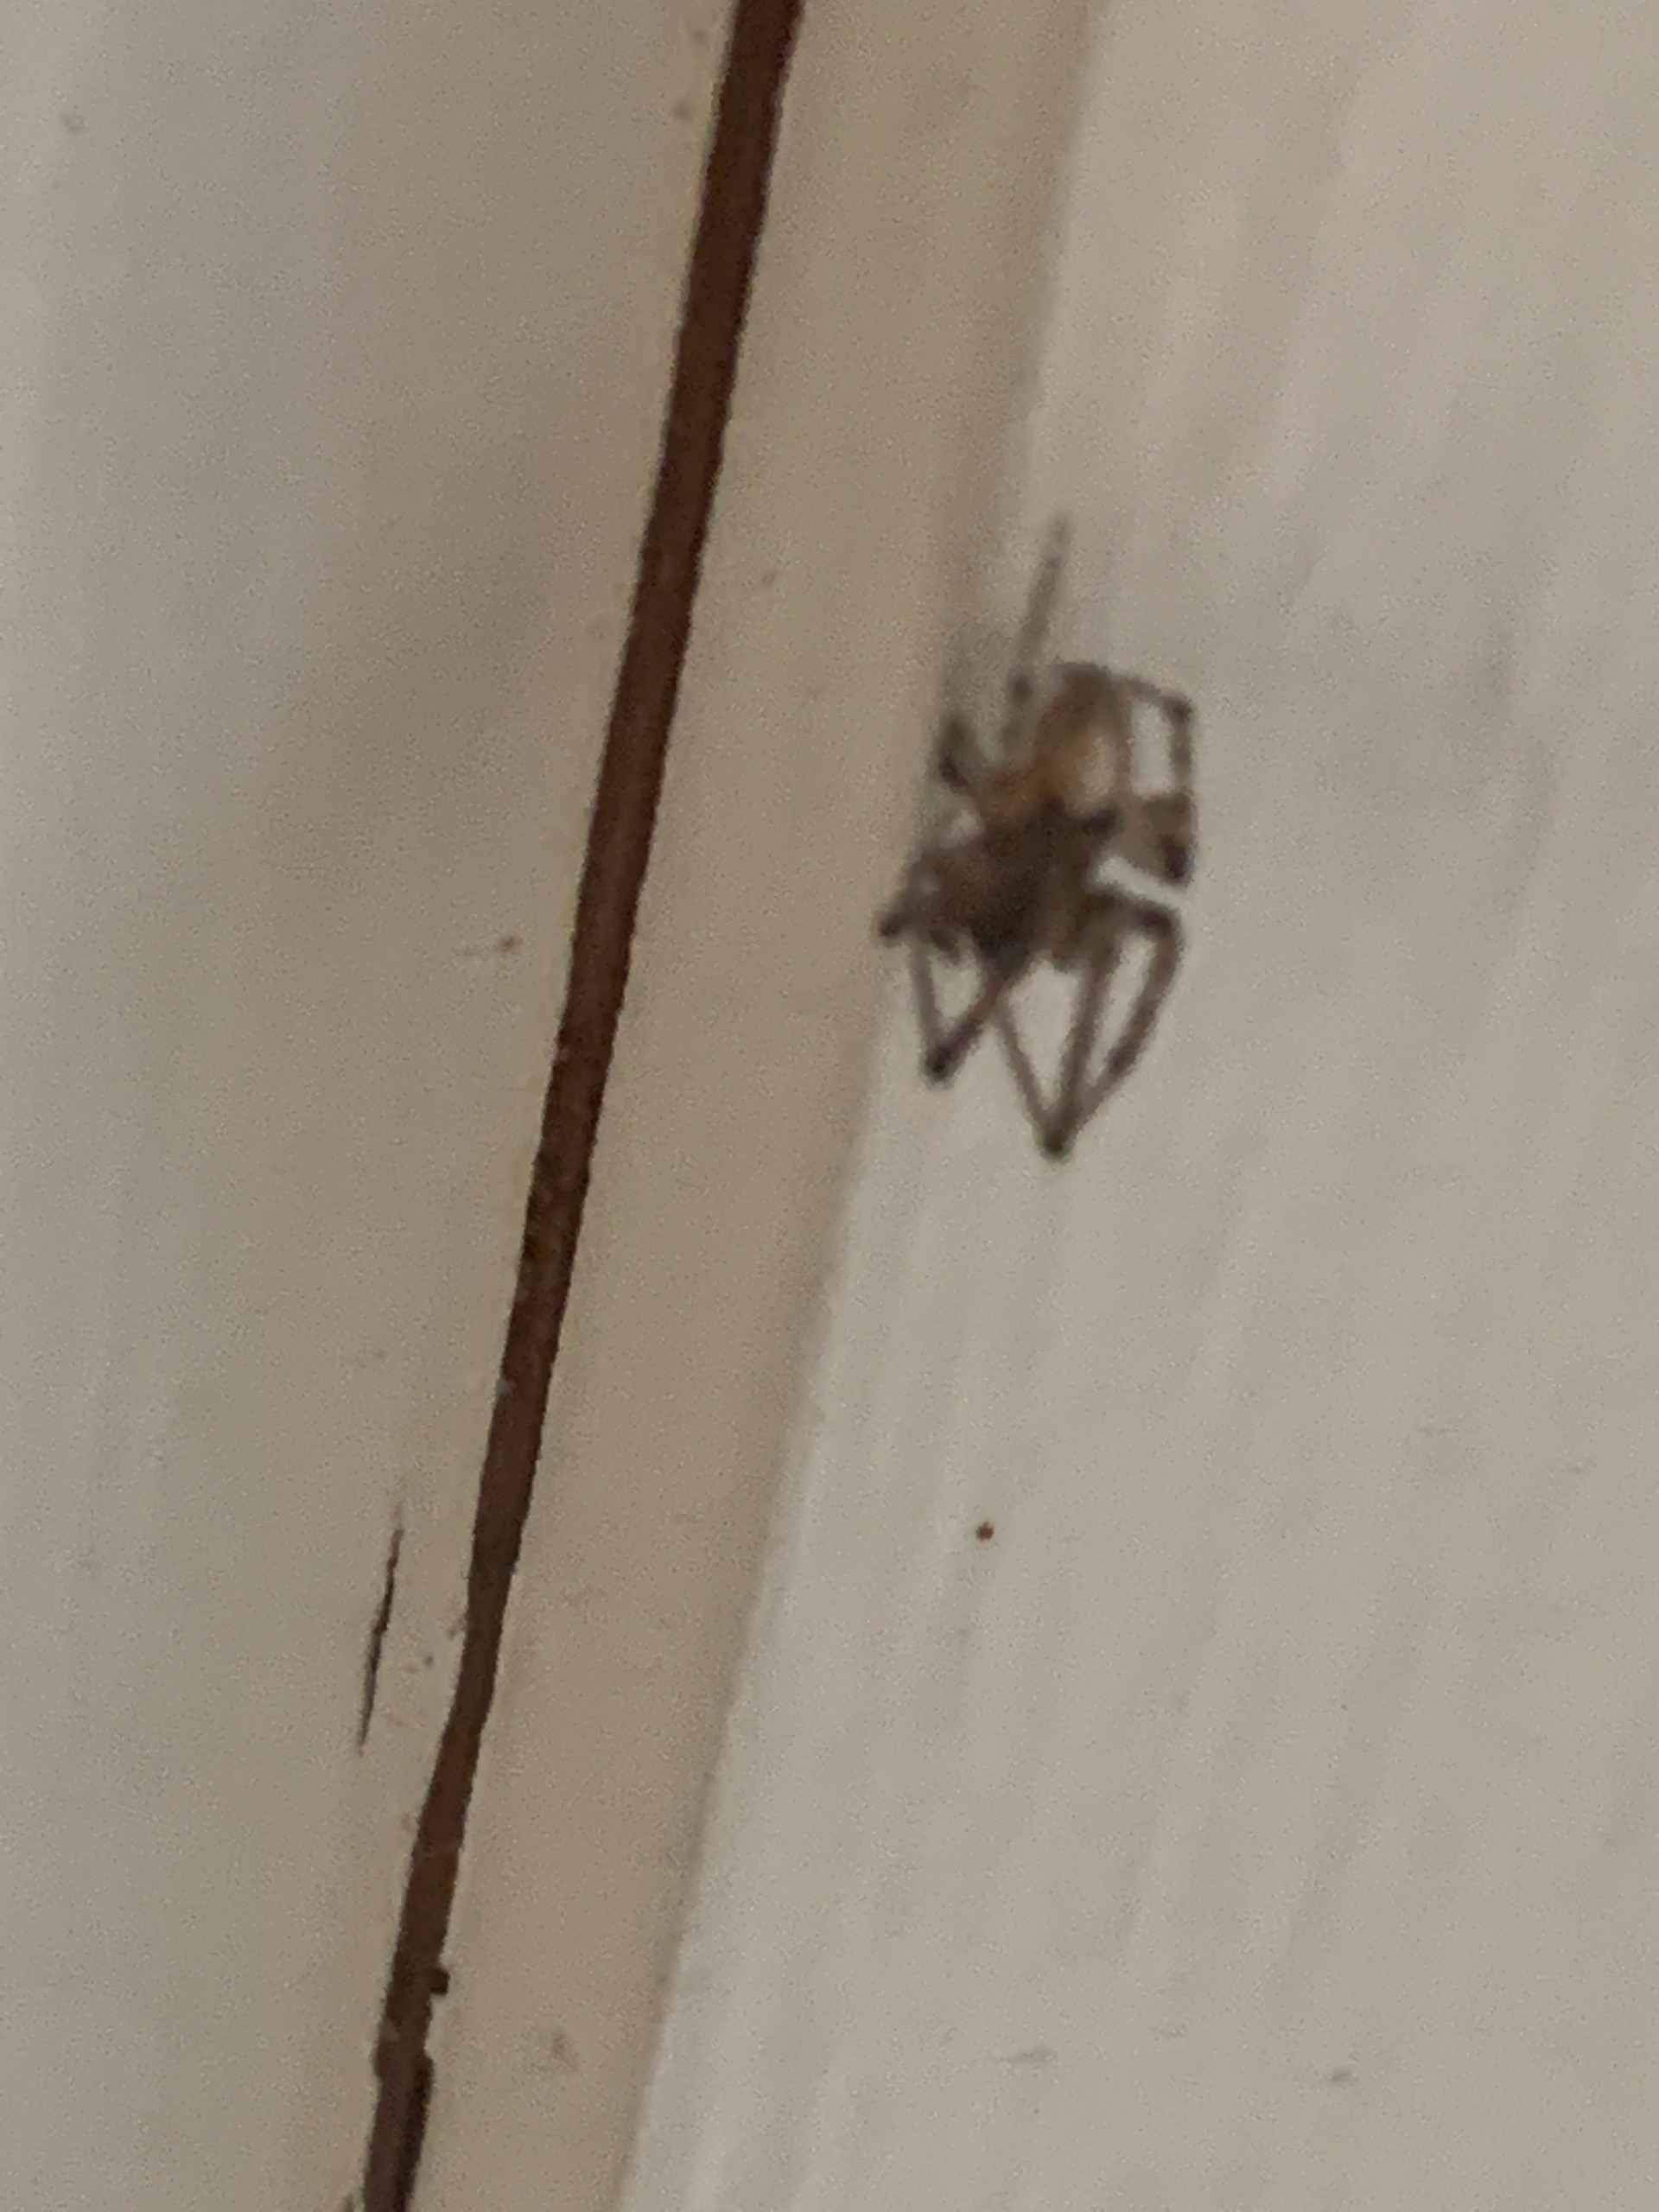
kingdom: Animalia
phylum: Arthropoda
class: Arachnida
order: Araneae
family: Araneidae
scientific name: Araneidae
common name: Hjulspindere
